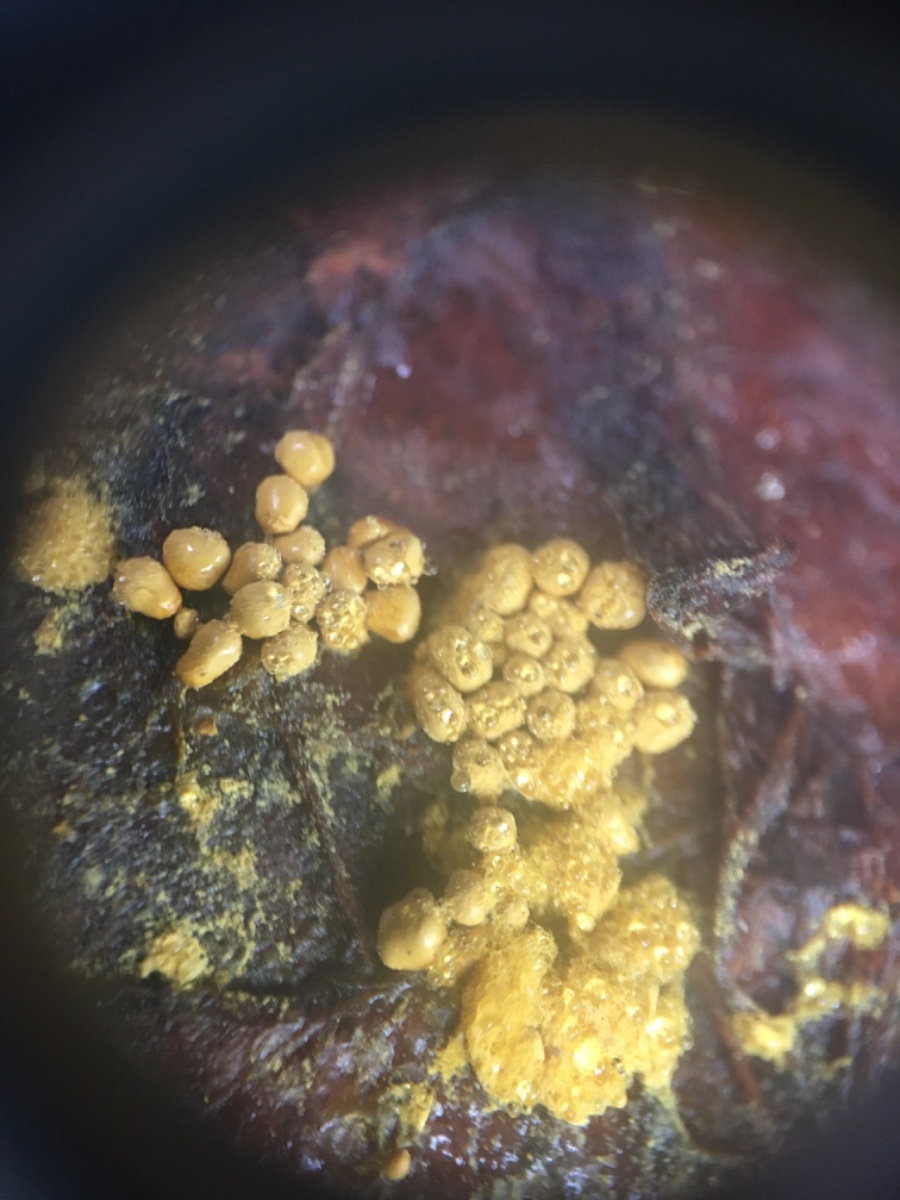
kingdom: Protozoa
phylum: Mycetozoa
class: Myxomycetes
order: Trichiales
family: Trichiaceae
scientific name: Trichiaceae
